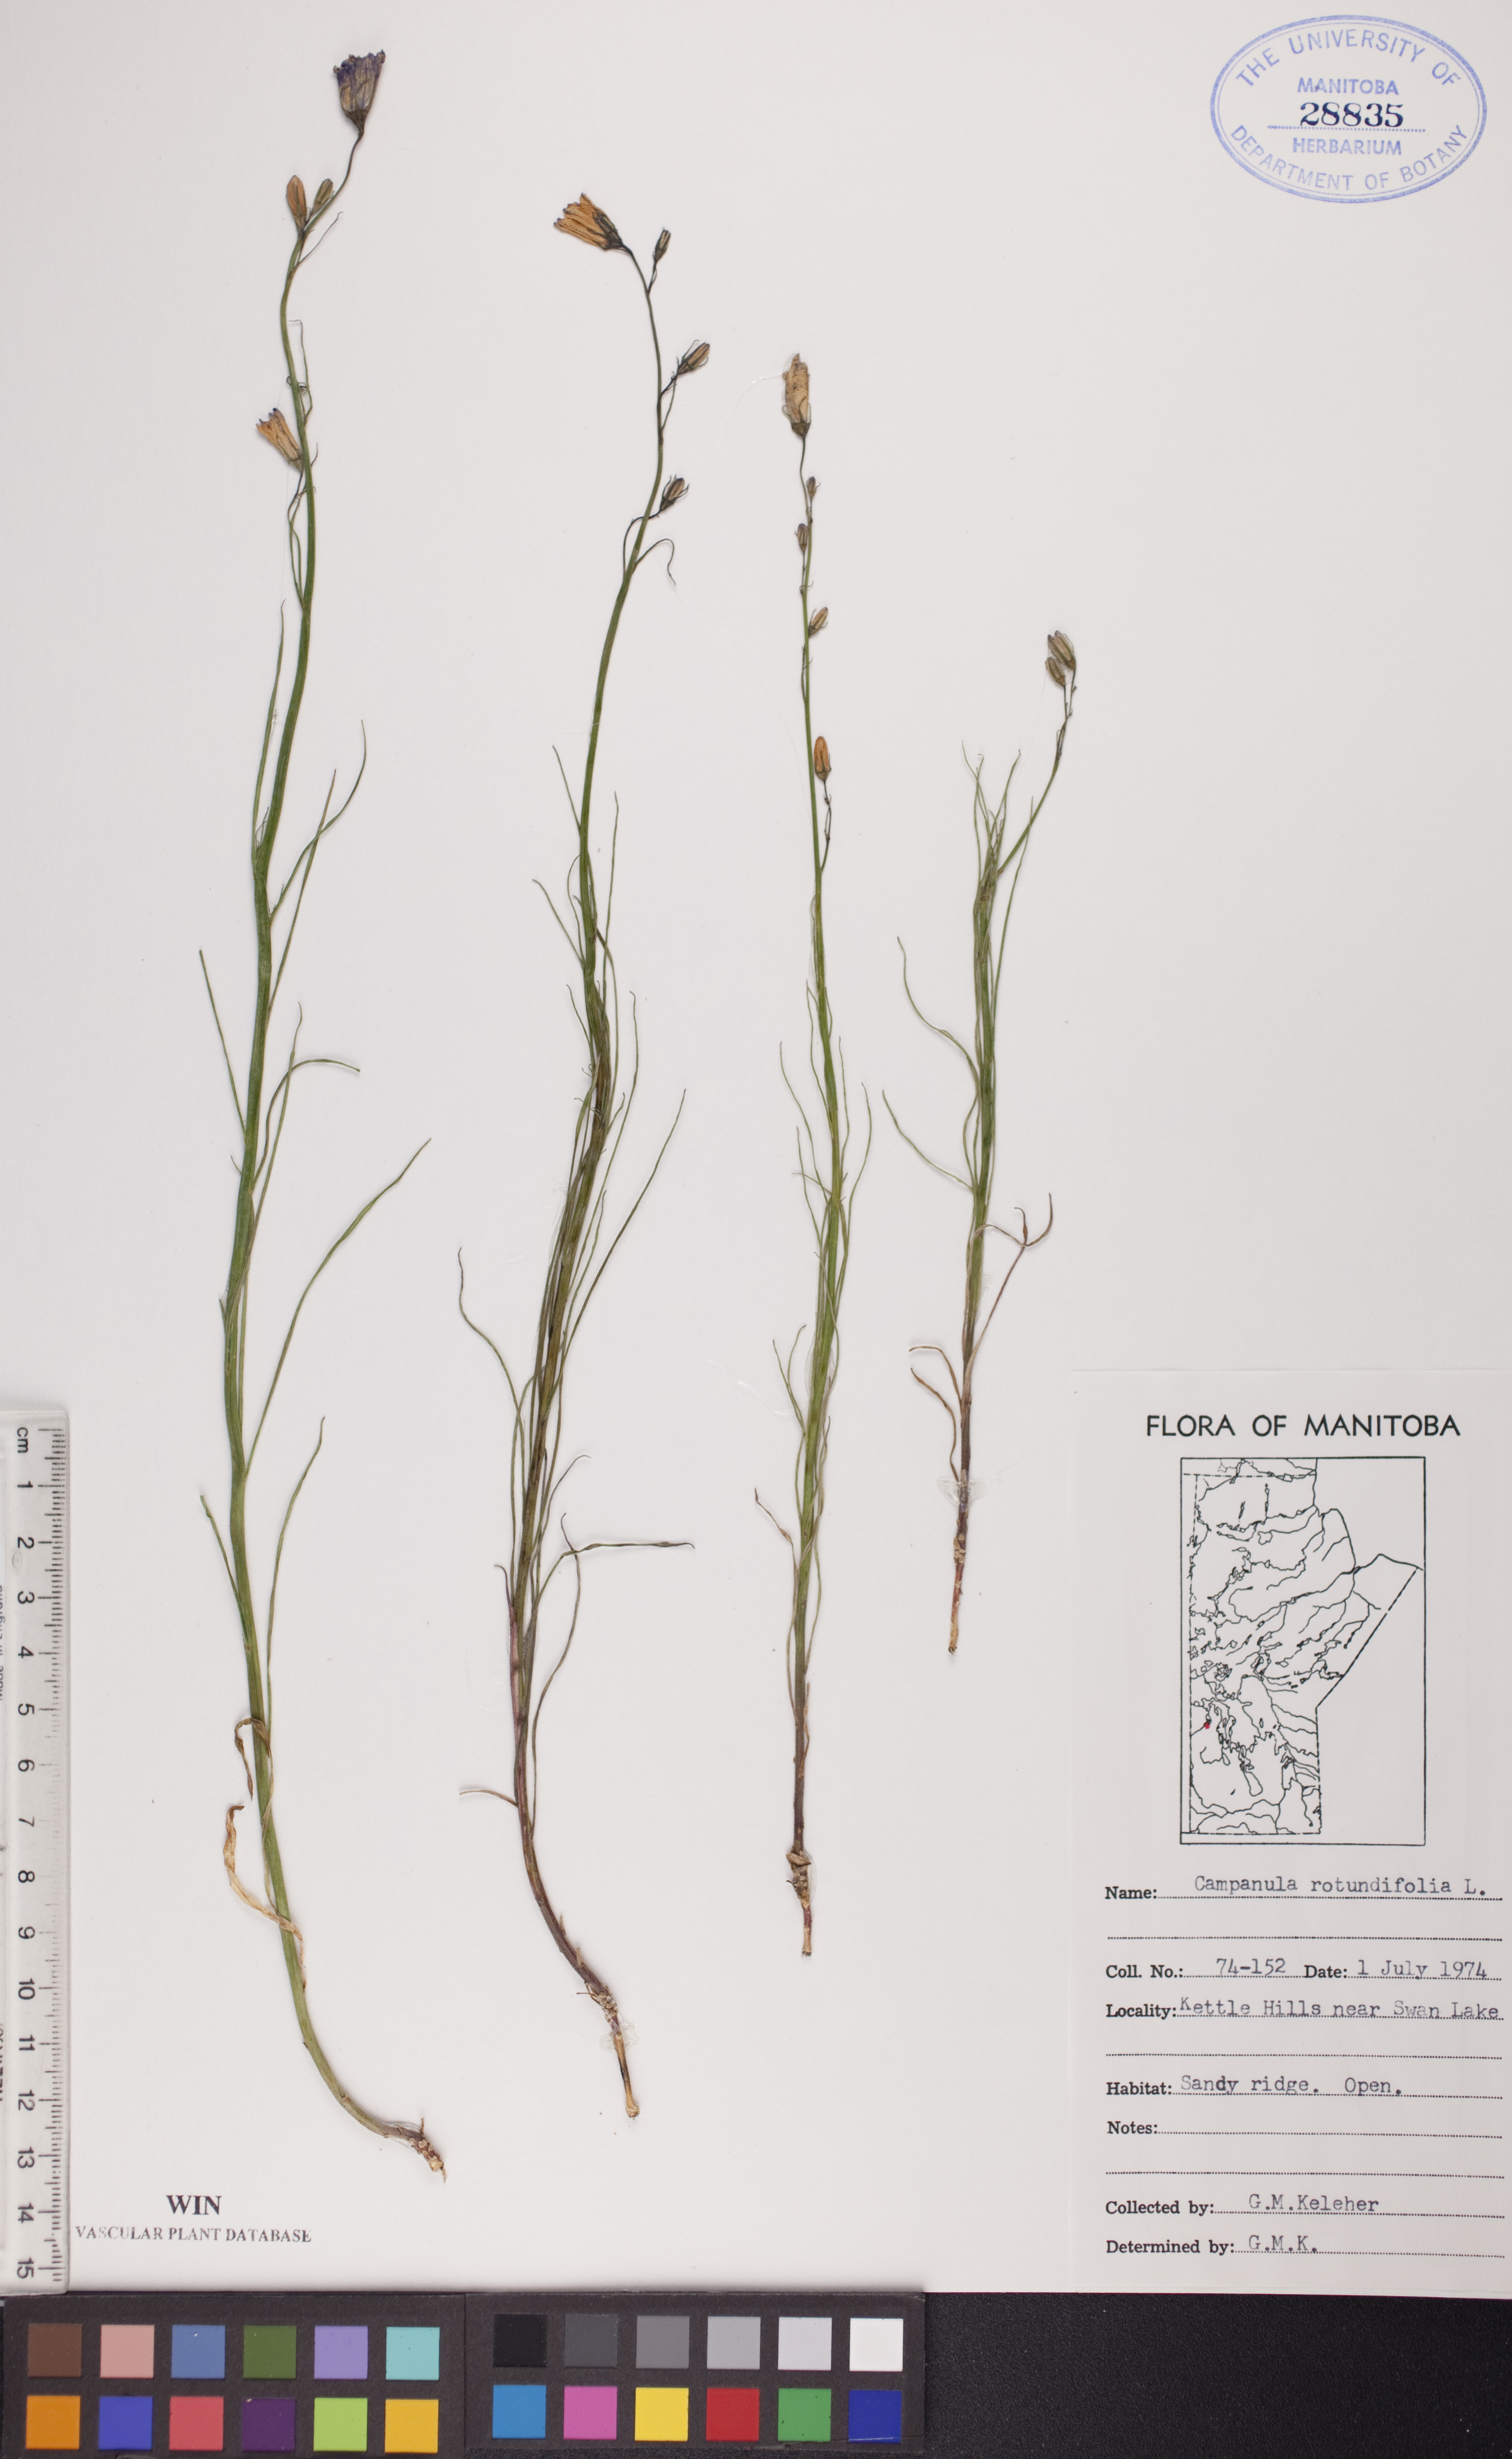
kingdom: Plantae
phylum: Tracheophyta
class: Magnoliopsida
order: Asterales
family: Campanulaceae
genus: Campanula
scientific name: Campanula rotundifolia
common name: Harebell
